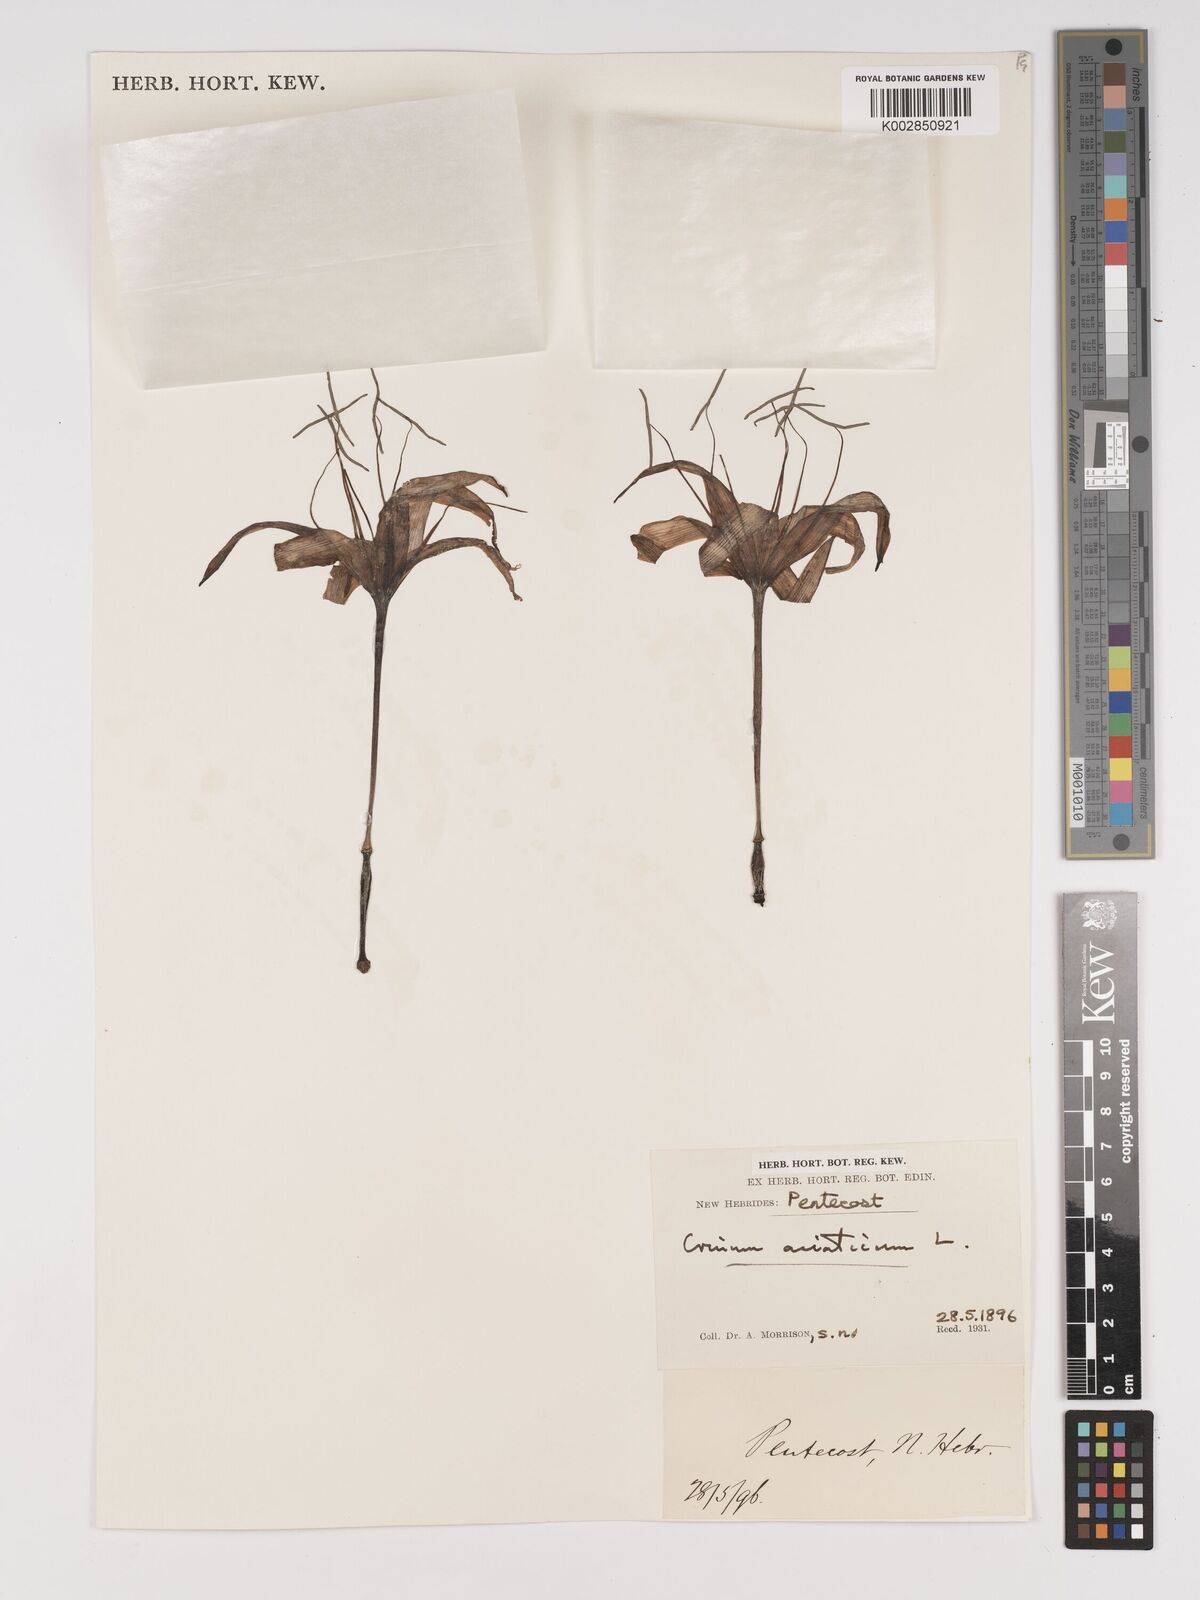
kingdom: Plantae
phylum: Tracheophyta
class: Liliopsida
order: Asparagales
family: Amaryllidaceae
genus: Crinum
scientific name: Crinum asiaticum
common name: Poisonbulb
